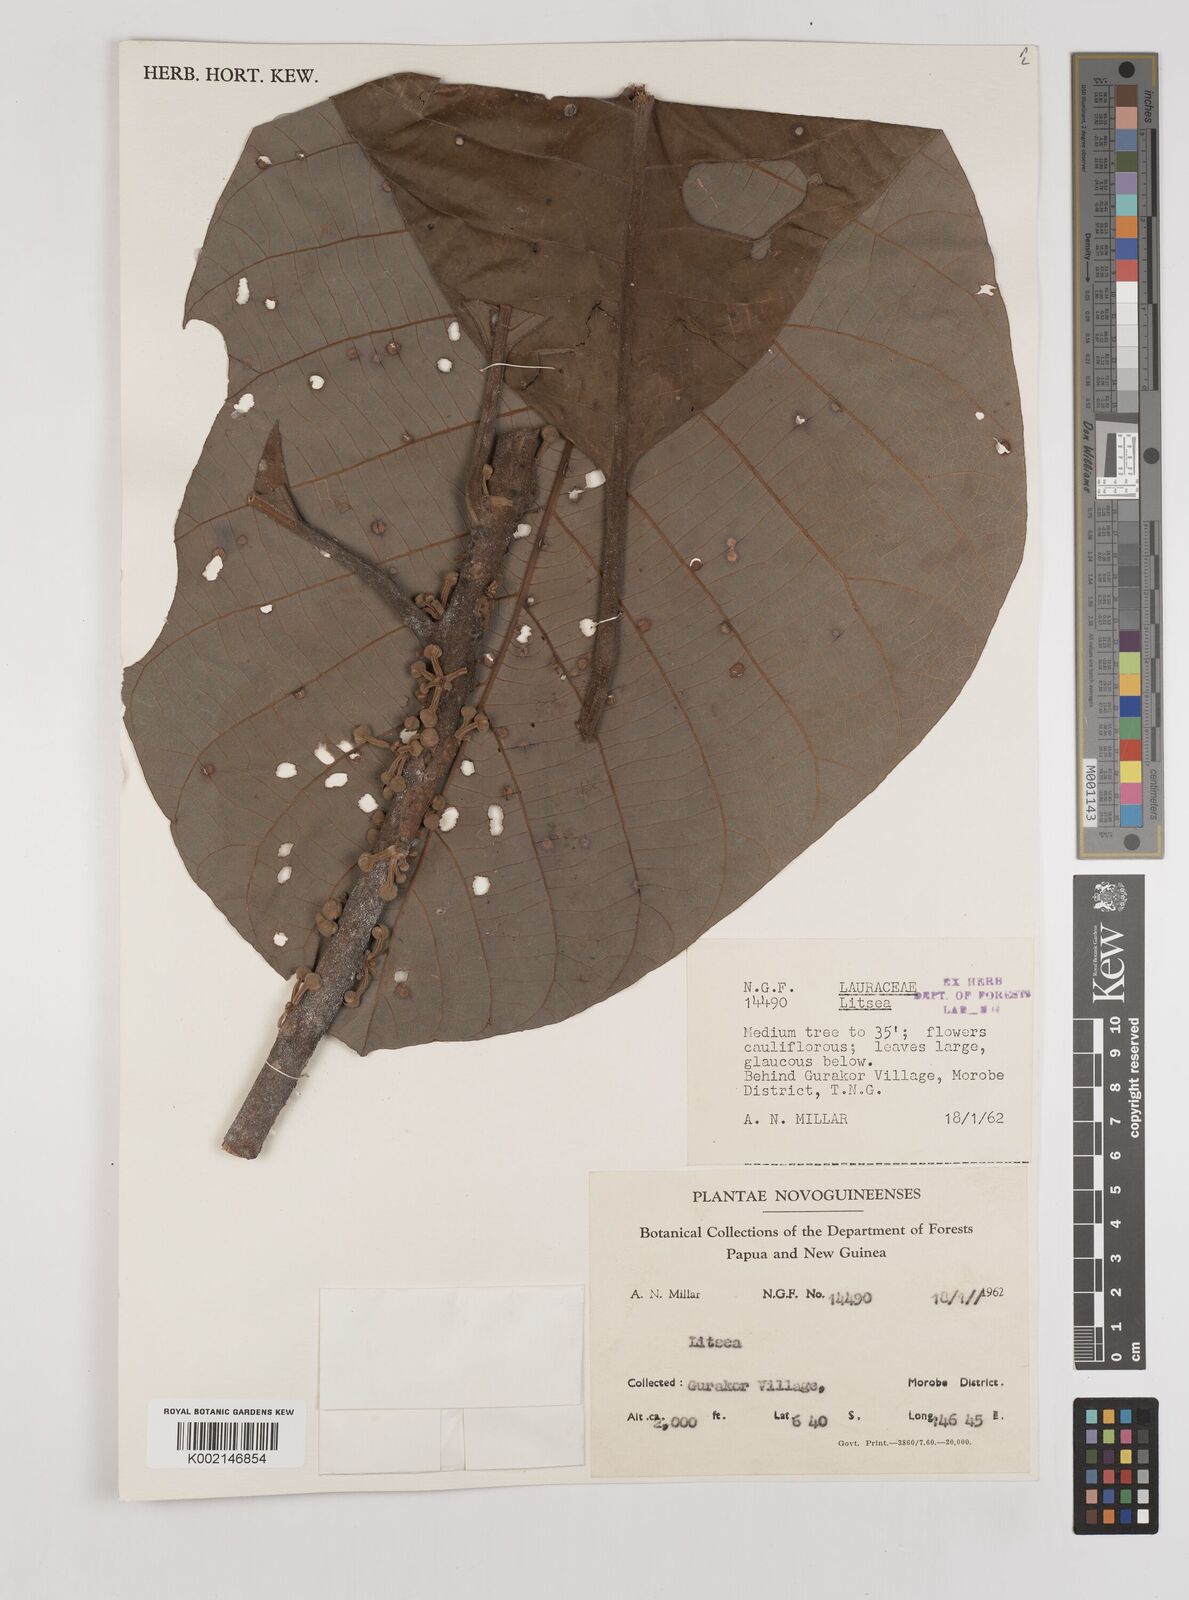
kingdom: Plantae
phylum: Tracheophyta
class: Magnoliopsida
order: Laurales
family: Lauraceae
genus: Litsea
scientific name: Litsea
